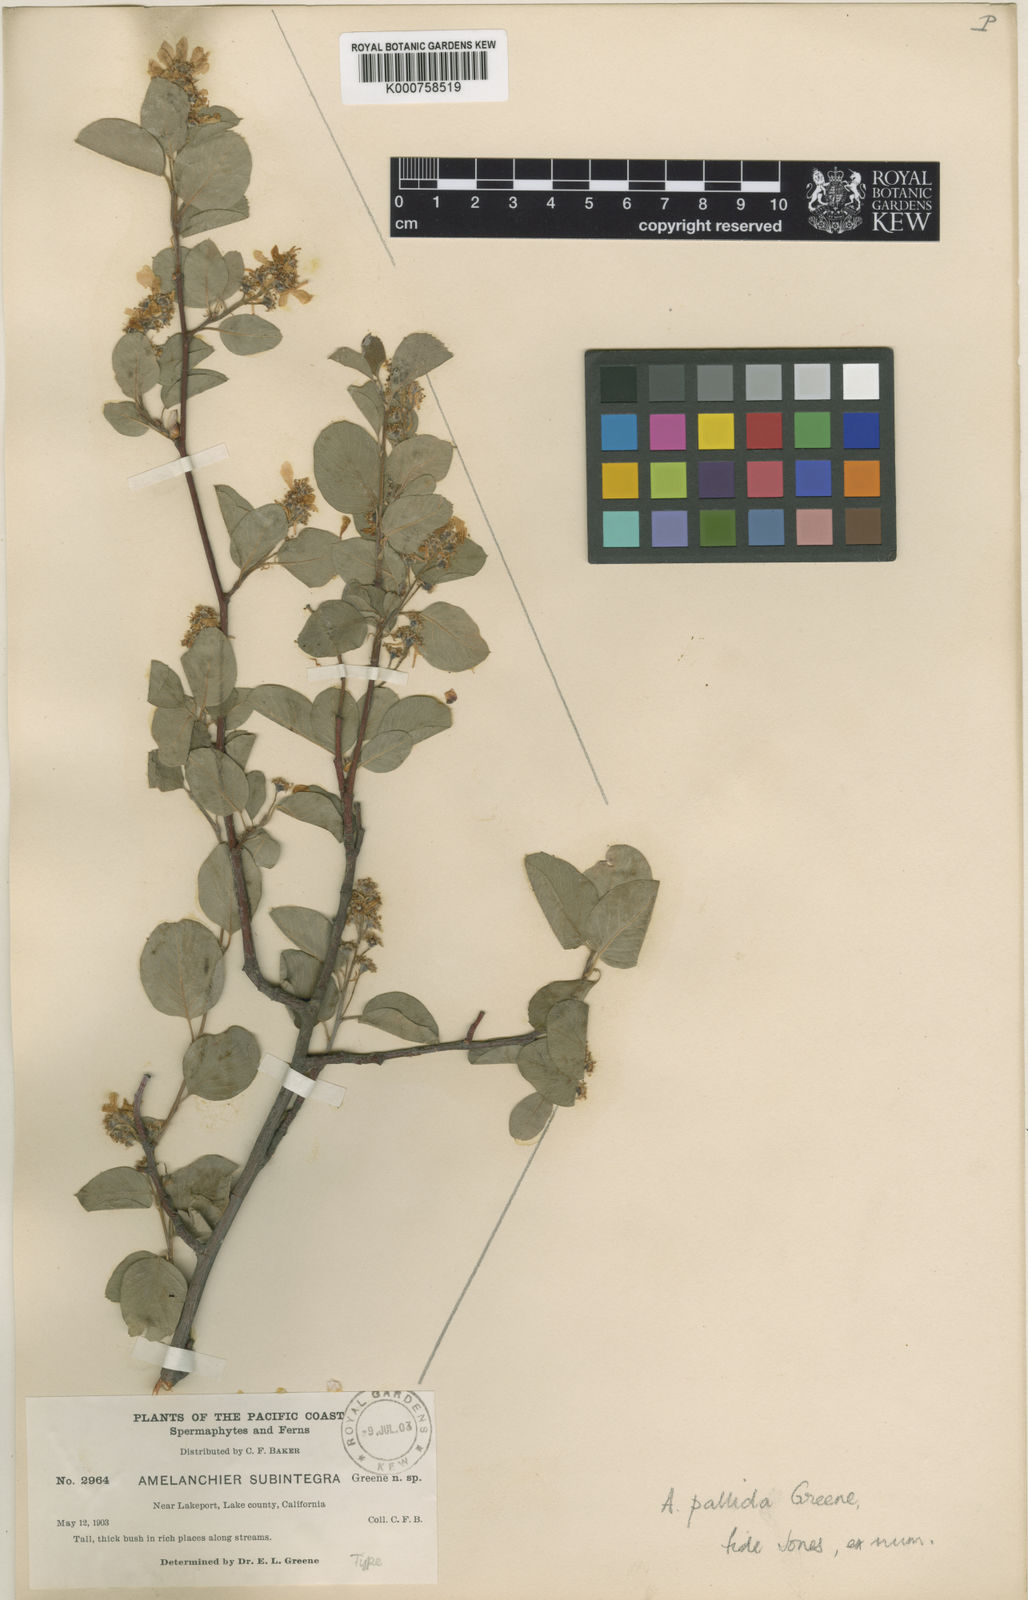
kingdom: Plantae
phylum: Tracheophyta
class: Magnoliopsida
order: Rosales
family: Rosaceae
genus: Amelanchier
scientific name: Amelanchier pallida
